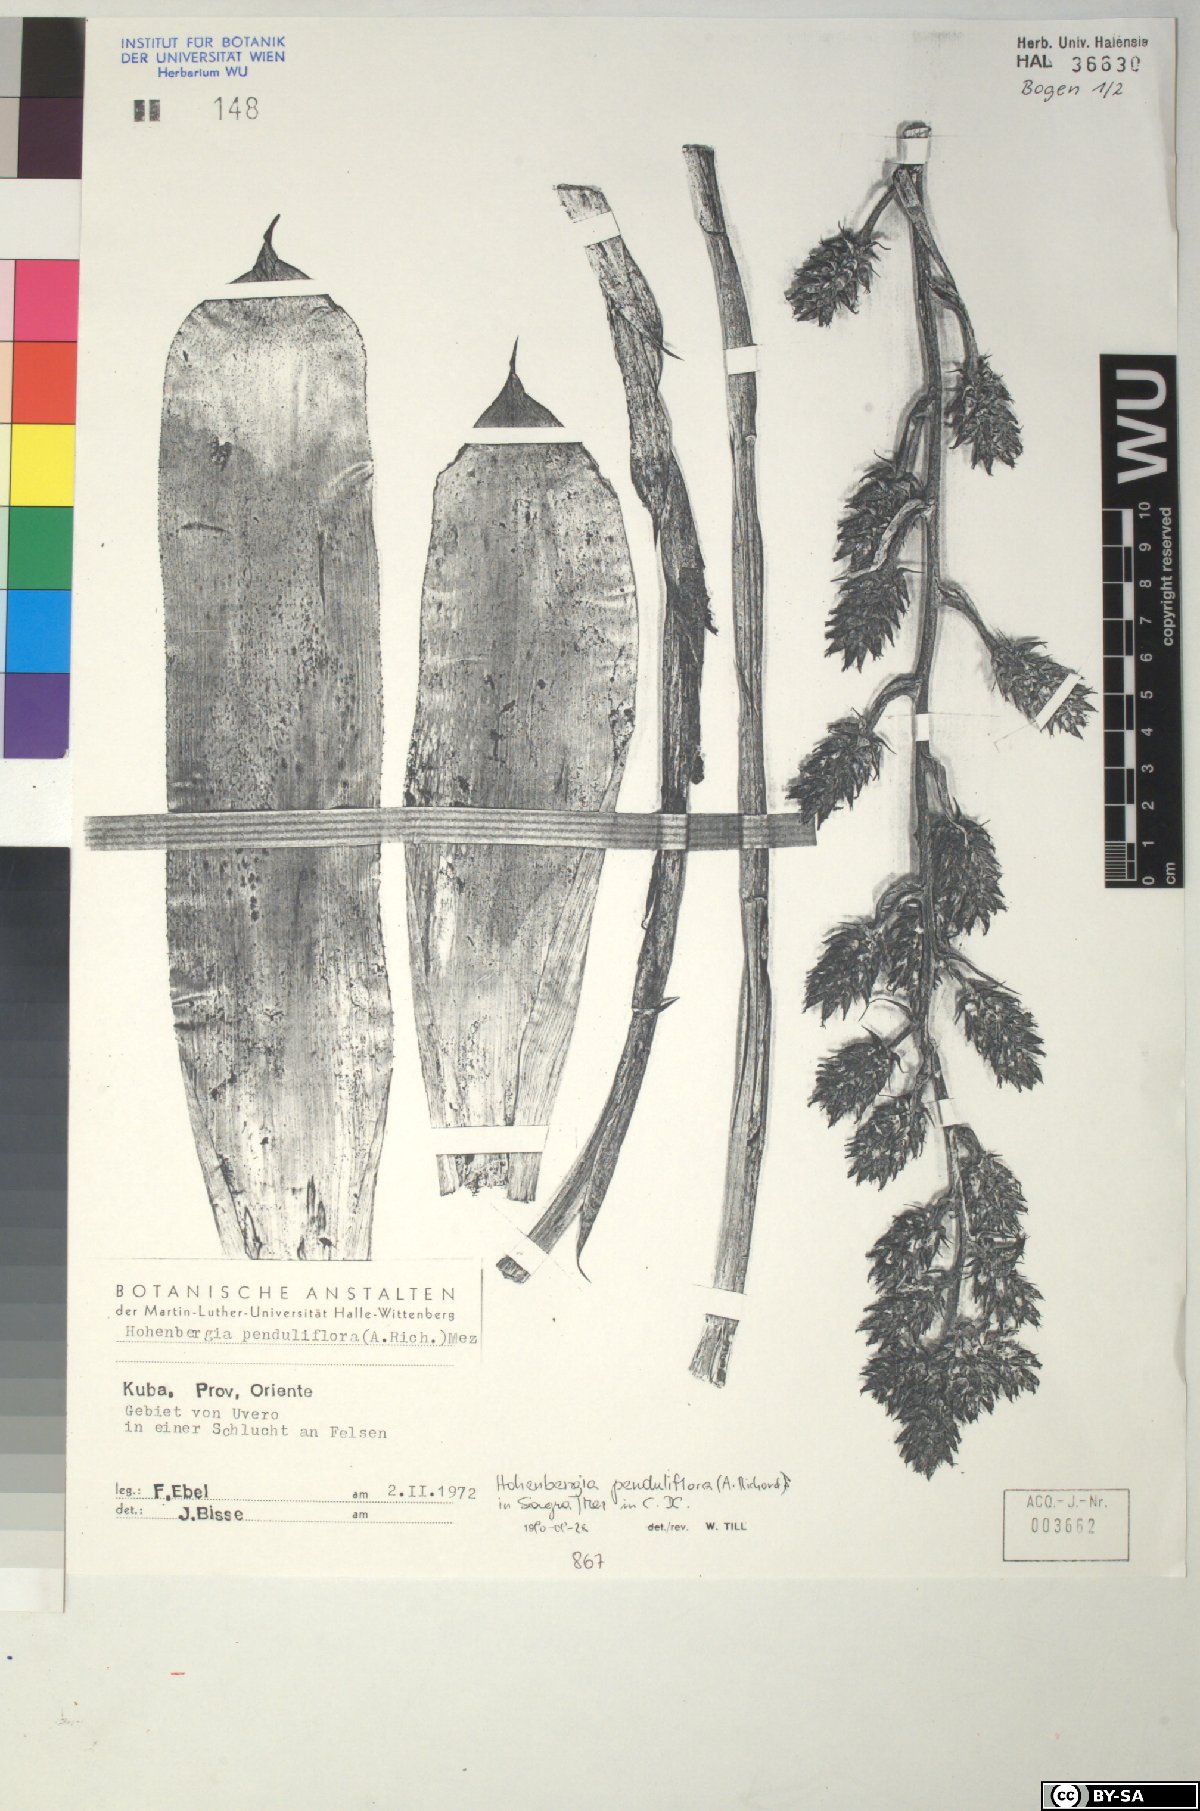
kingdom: Plantae
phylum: Tracheophyta
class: Liliopsida
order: Poales
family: Bromeliaceae
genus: Hohenbergia
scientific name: Hohenbergia
